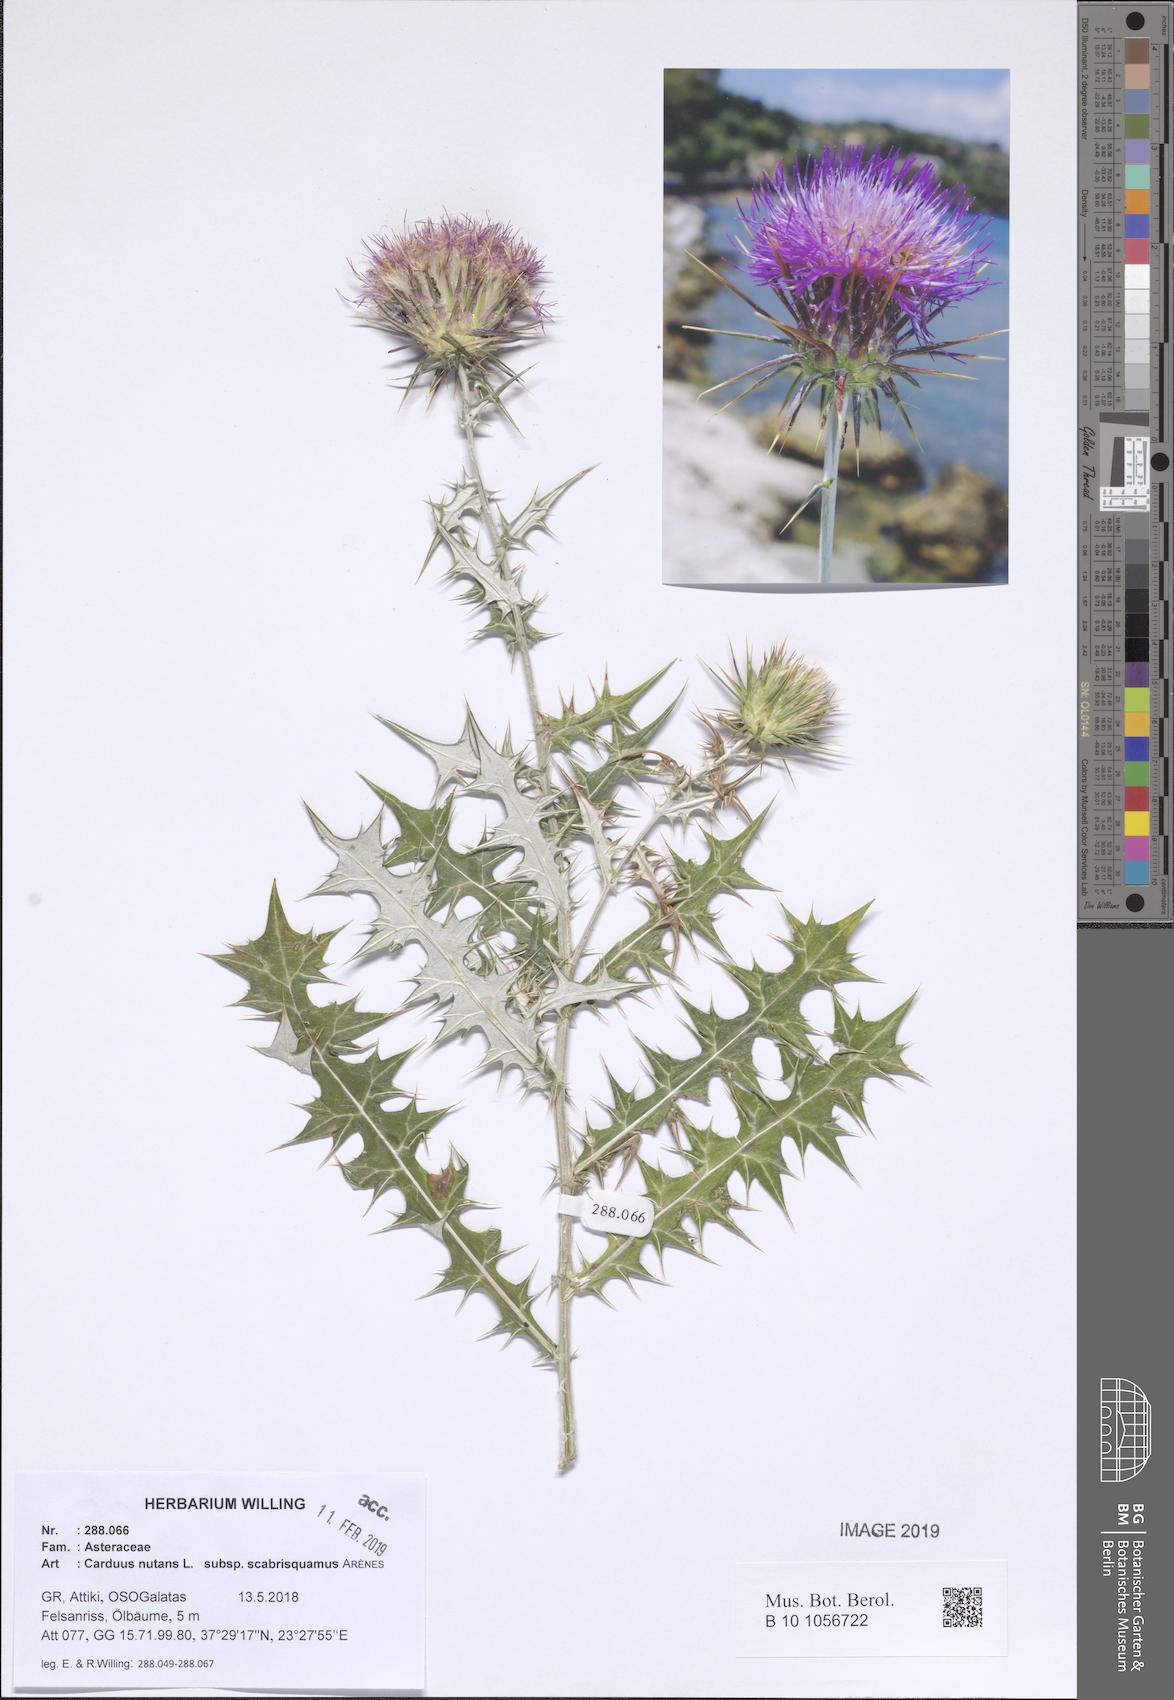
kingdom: Plantae
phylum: Tracheophyta
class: Magnoliopsida
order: Asterales
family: Asteraceae
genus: Carduus
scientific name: Carduus macrocephalus
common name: Giant thistle
